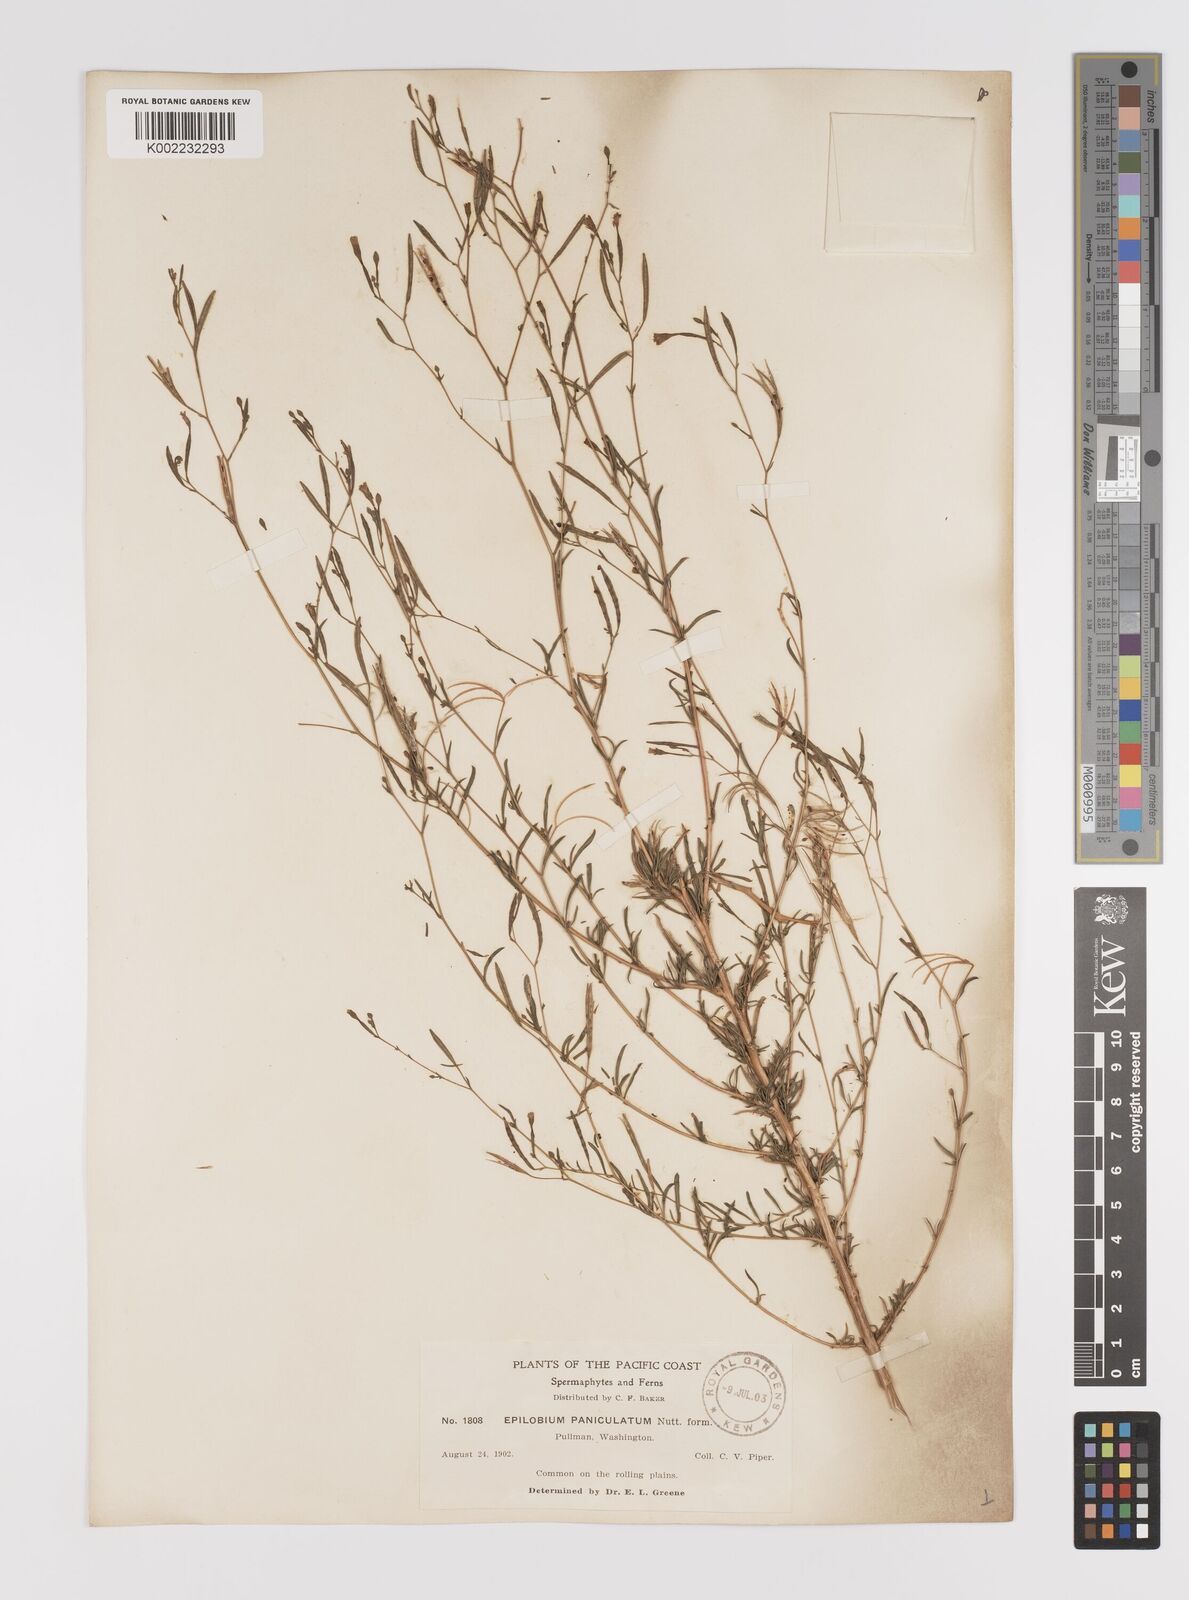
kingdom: Plantae
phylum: Tracheophyta
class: Magnoliopsida
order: Myrtales
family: Onagraceae
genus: Epilobium
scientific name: Epilobium
